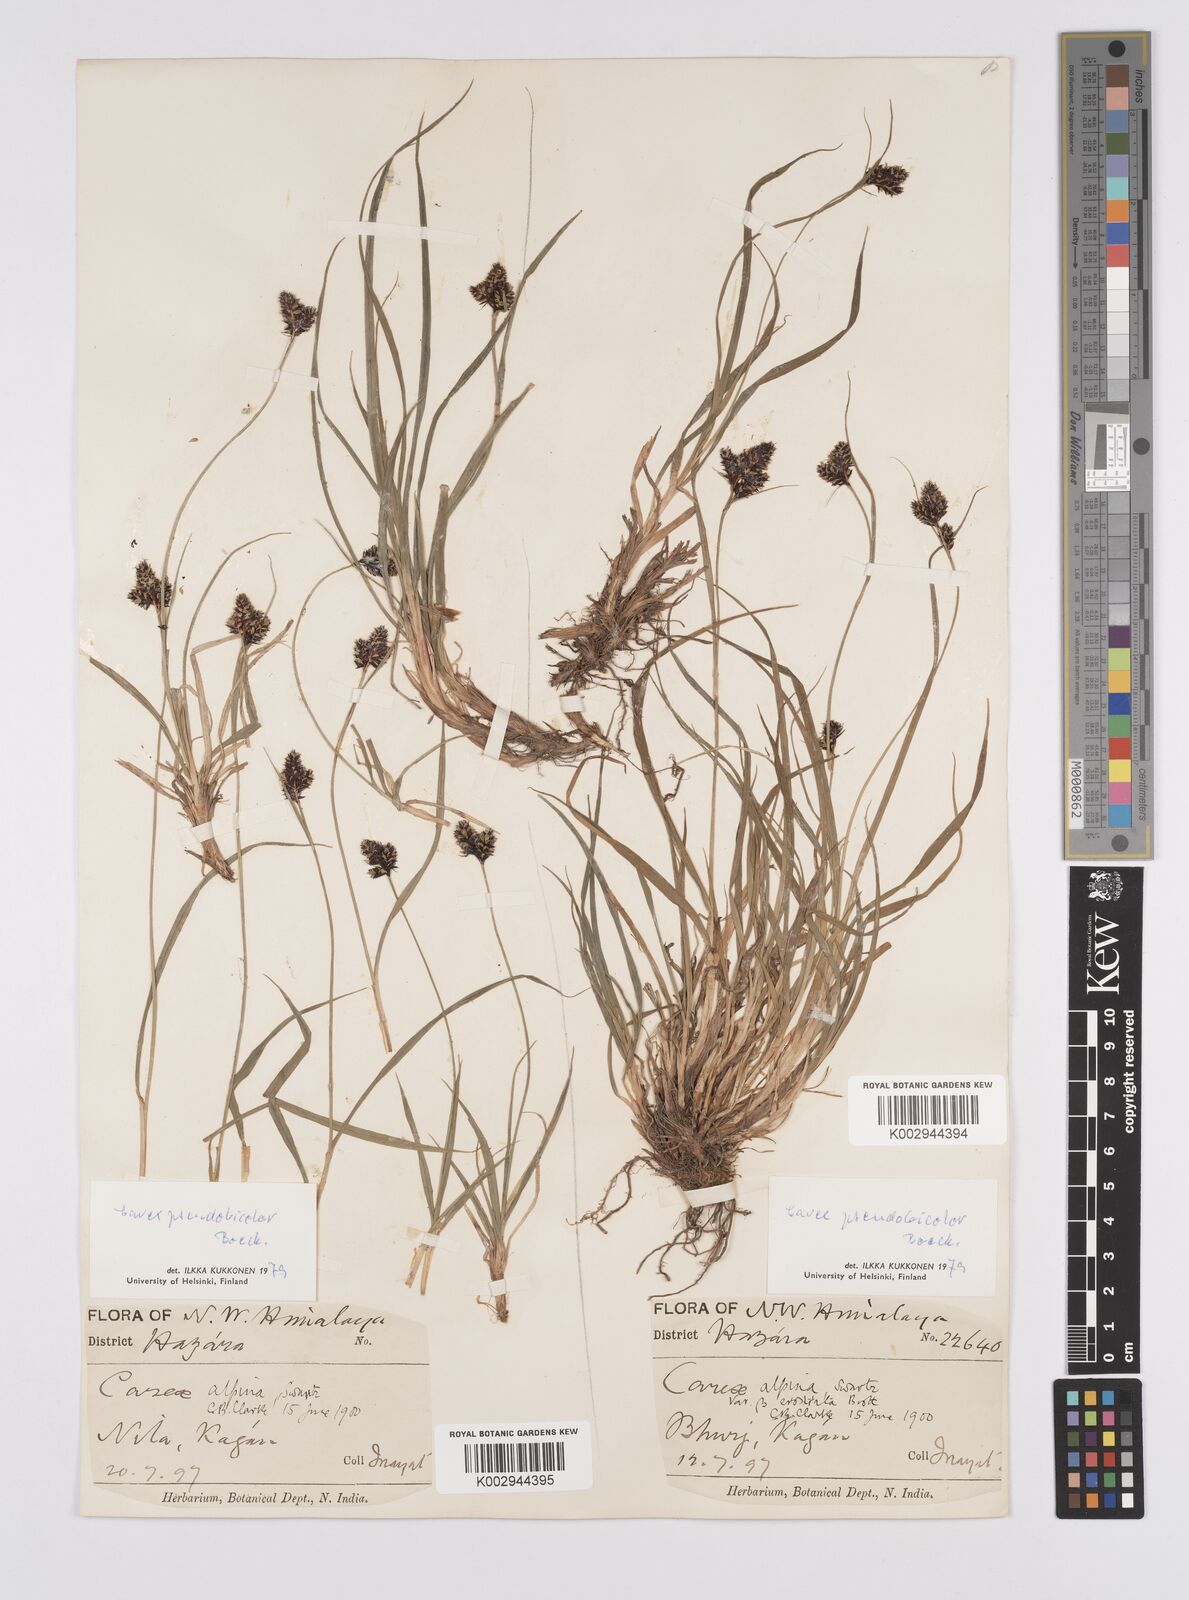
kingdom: Plantae
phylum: Tracheophyta
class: Liliopsida
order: Poales
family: Cyperaceae
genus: Carex
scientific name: Carex norvegica
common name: Close-headed alpine-sedge
